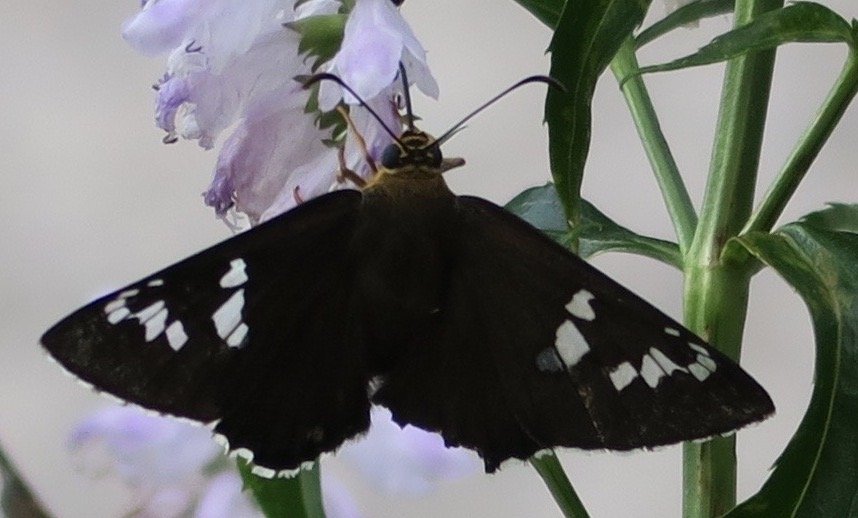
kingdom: Animalia
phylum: Arthropoda
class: Insecta
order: Lepidoptera
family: Hesperiidae
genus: Pyrrhopyge
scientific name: Pyrrhopyge araxes
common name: Dull Firetip
